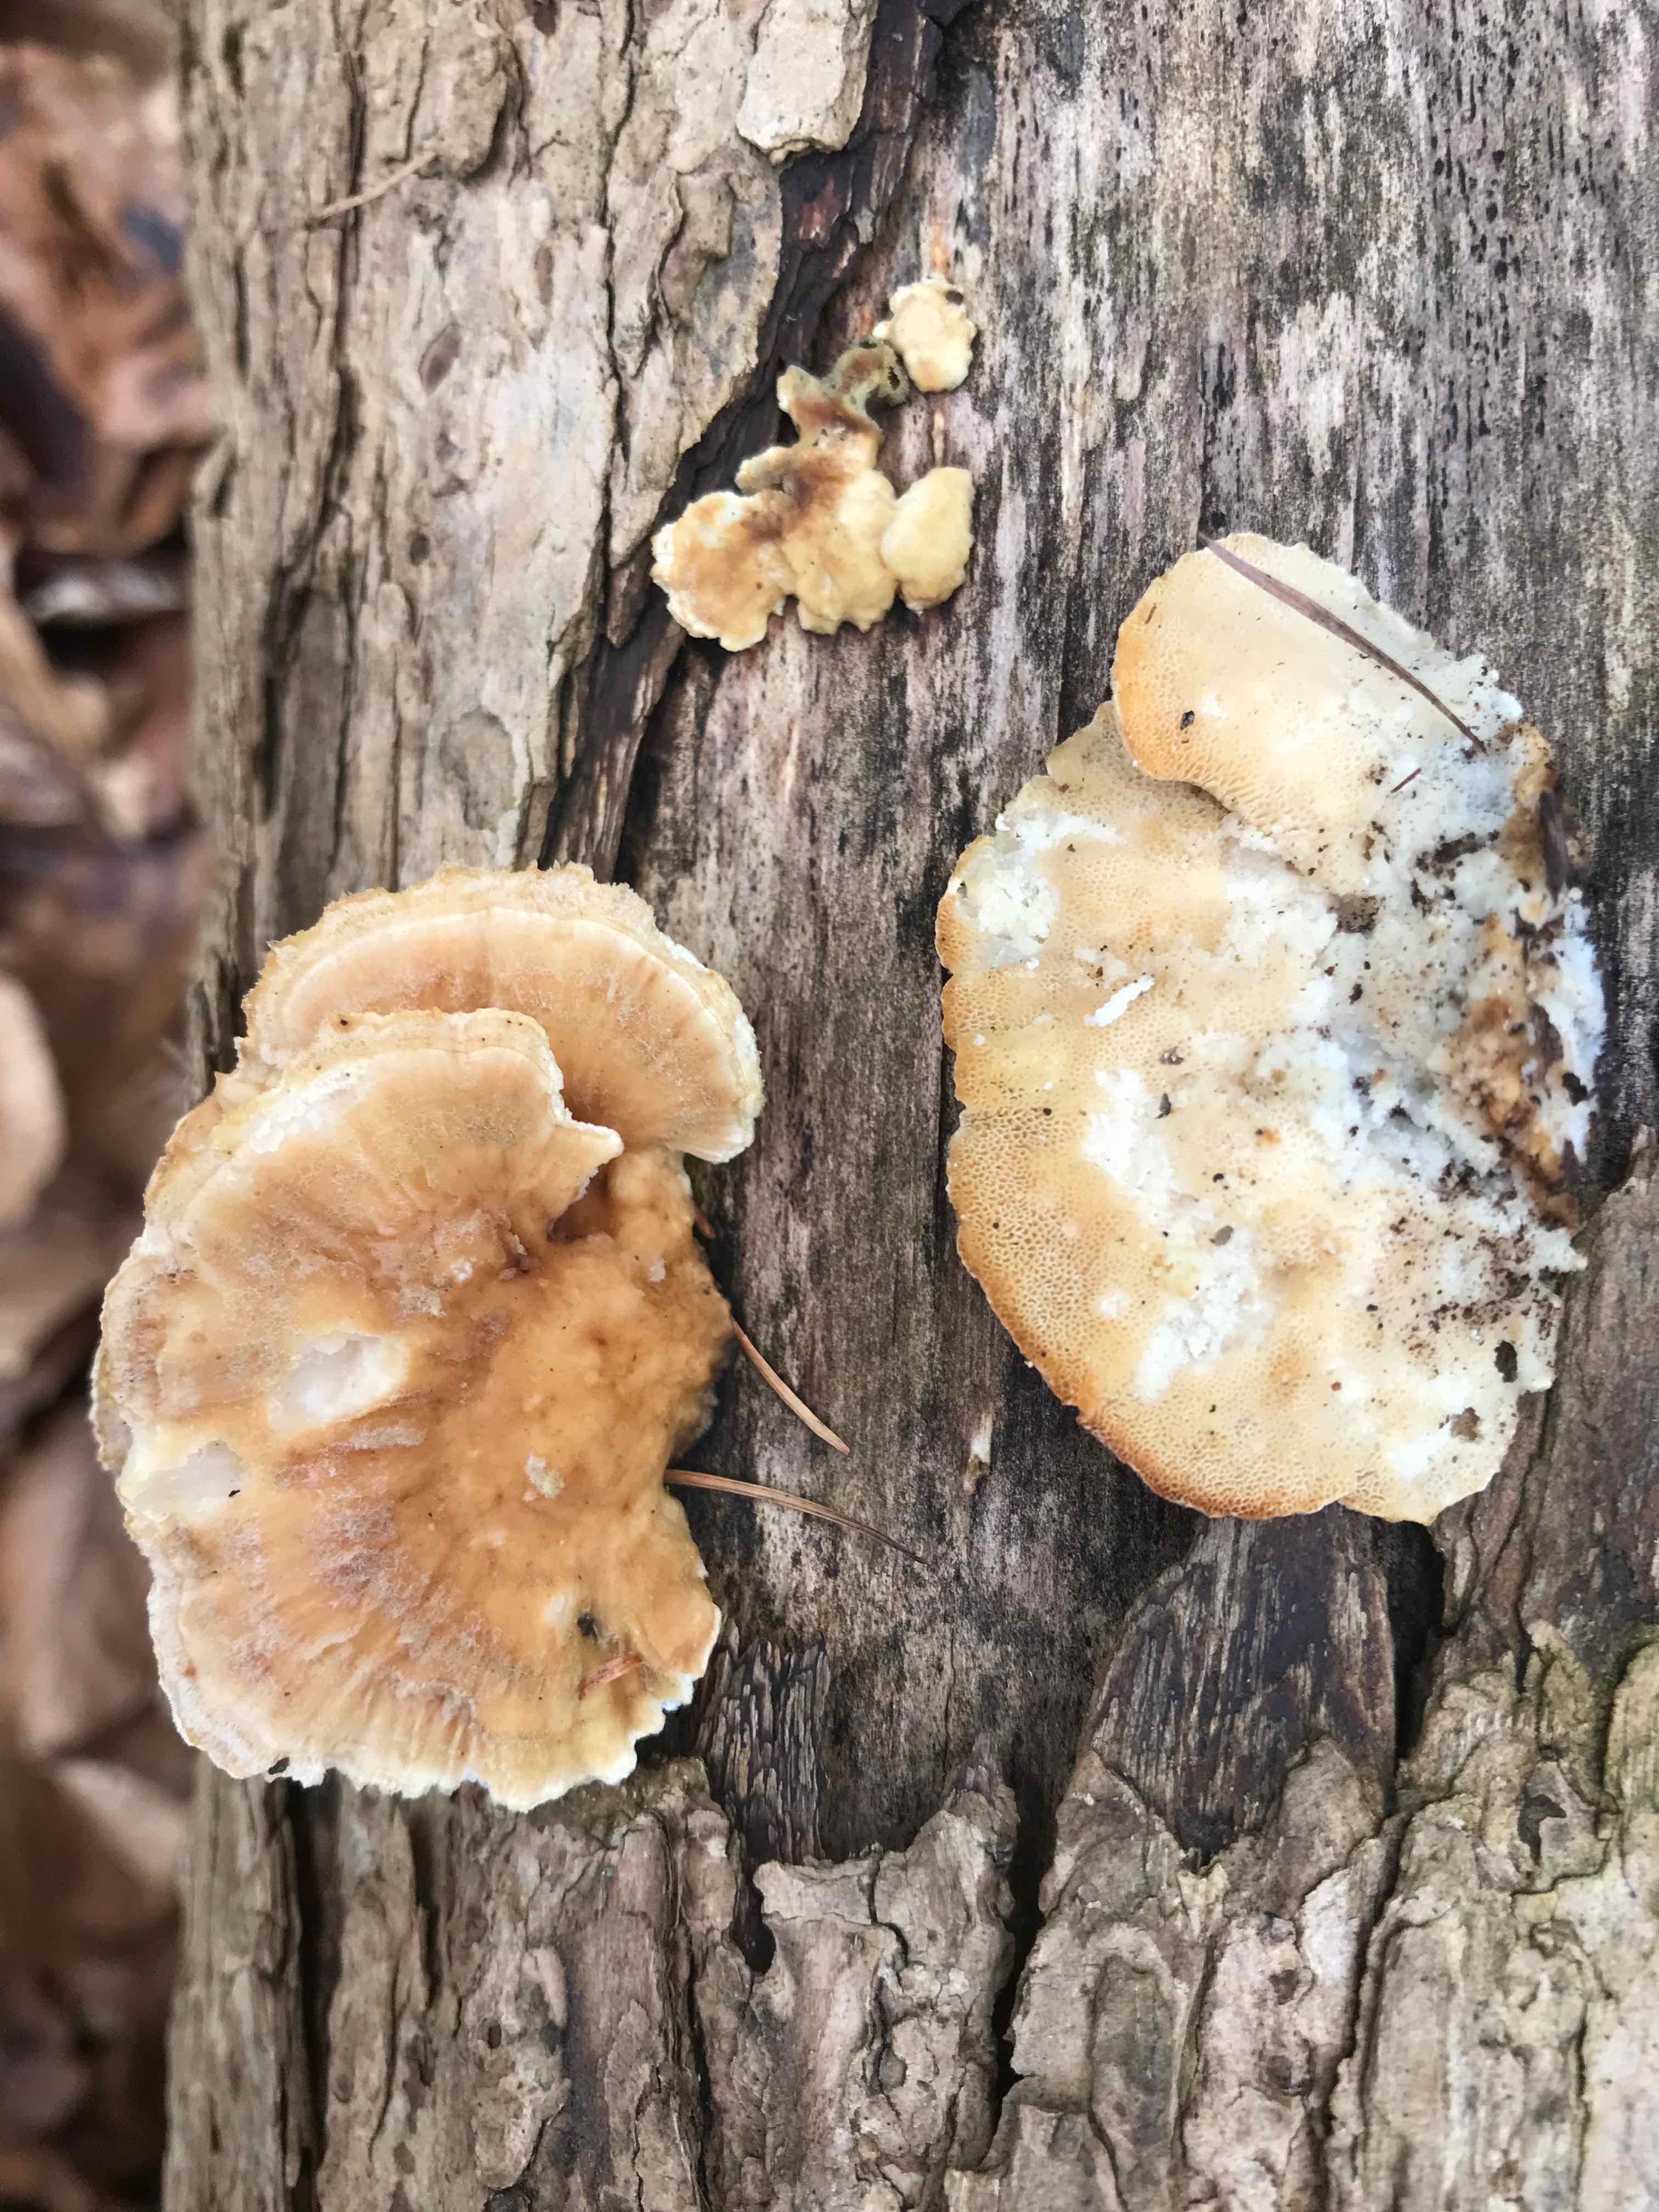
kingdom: Fungi
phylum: Basidiomycota
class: Agaricomycetes
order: Polyporales
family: Polyporaceae
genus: Trametes
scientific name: Trametes hirsuta
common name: håret læderporesvamp
